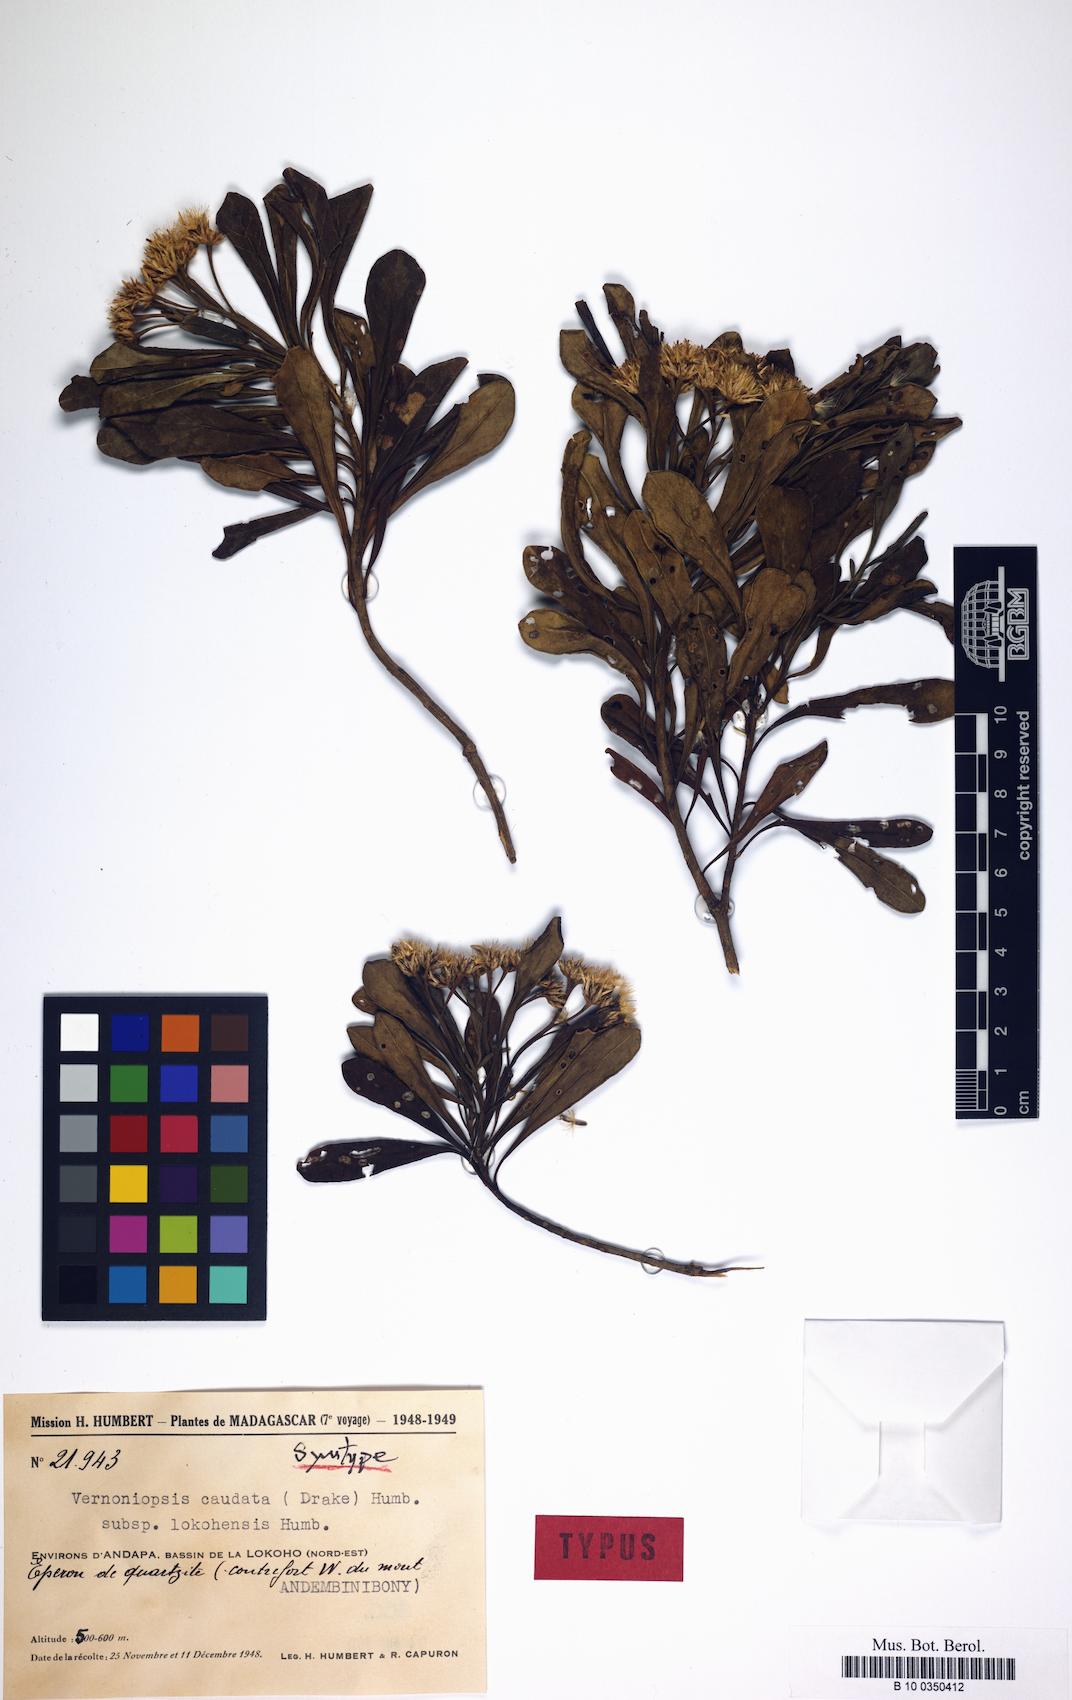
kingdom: Plantae
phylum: Tracheophyta
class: Magnoliopsida
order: Asterales
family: Asteraceae
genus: Vernoniopsis
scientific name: Vernoniopsis lokohensis
